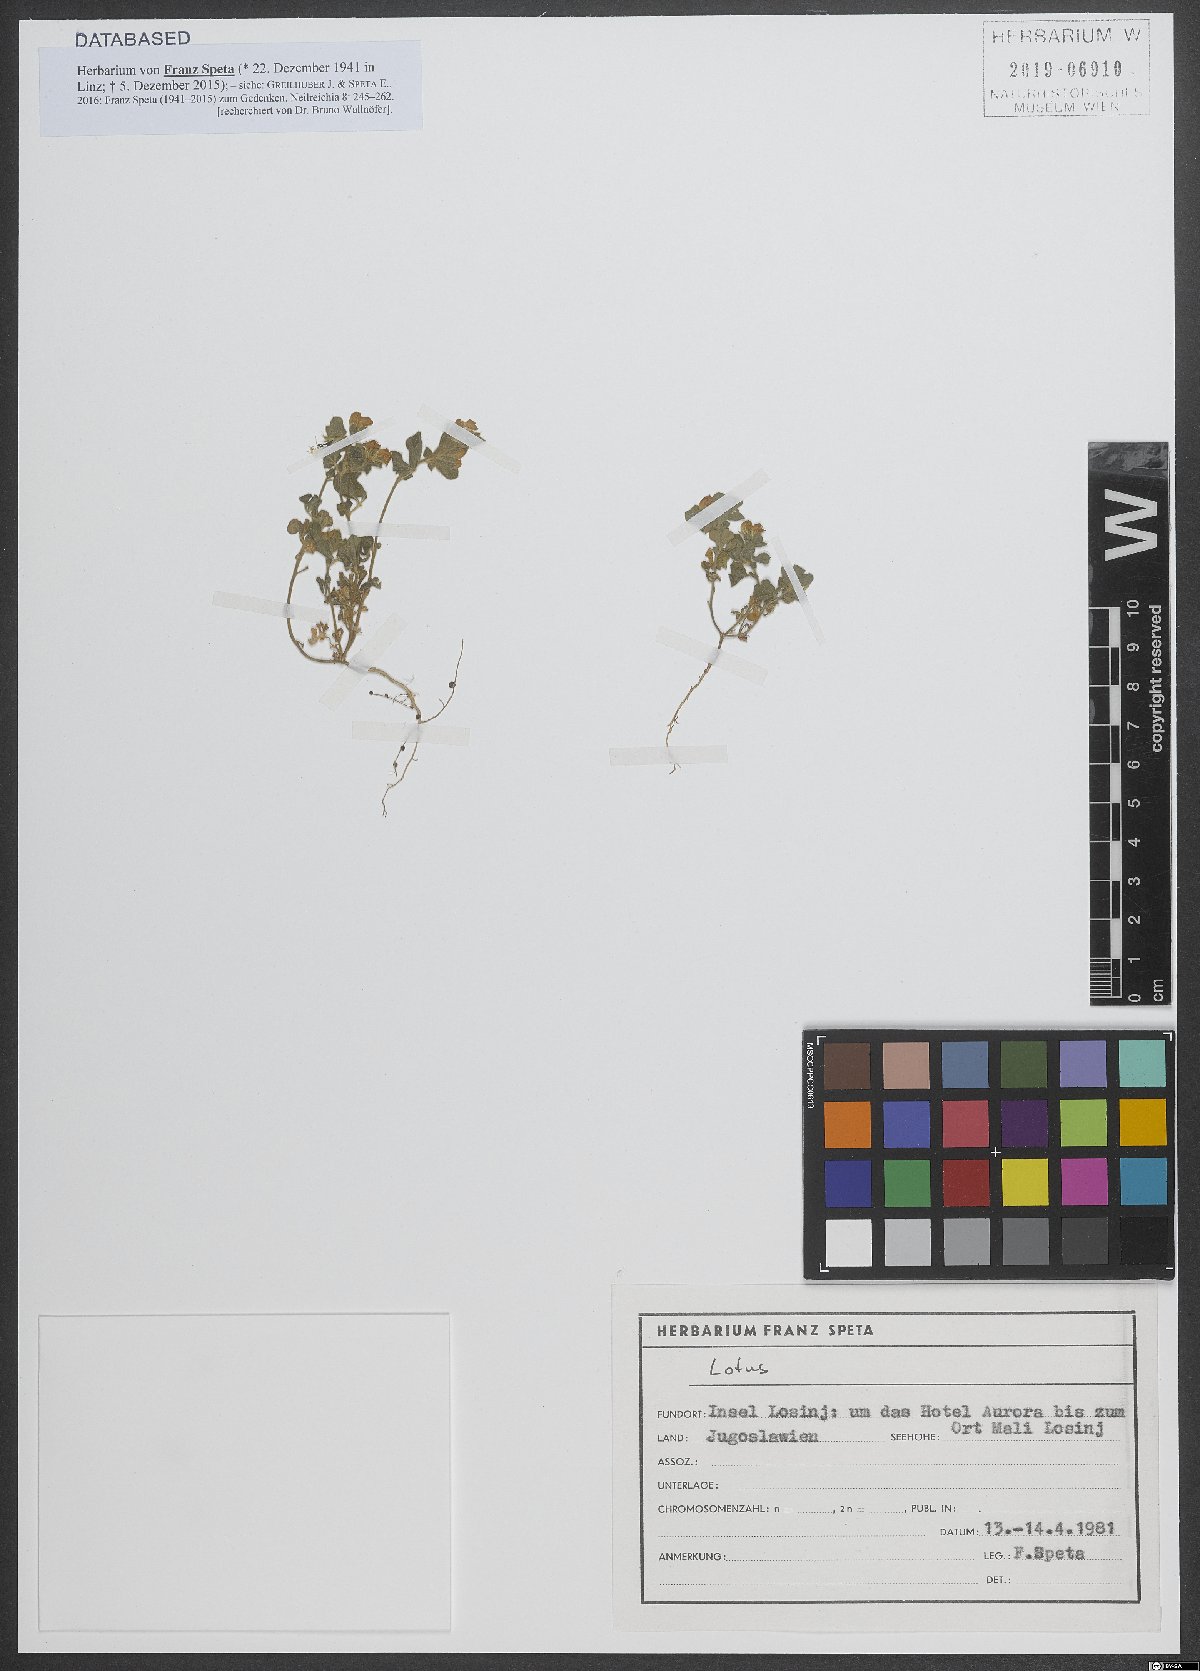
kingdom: Plantae
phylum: Tracheophyta
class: Magnoliopsida
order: Fabales
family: Fabaceae
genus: Lotus
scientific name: Lotus
